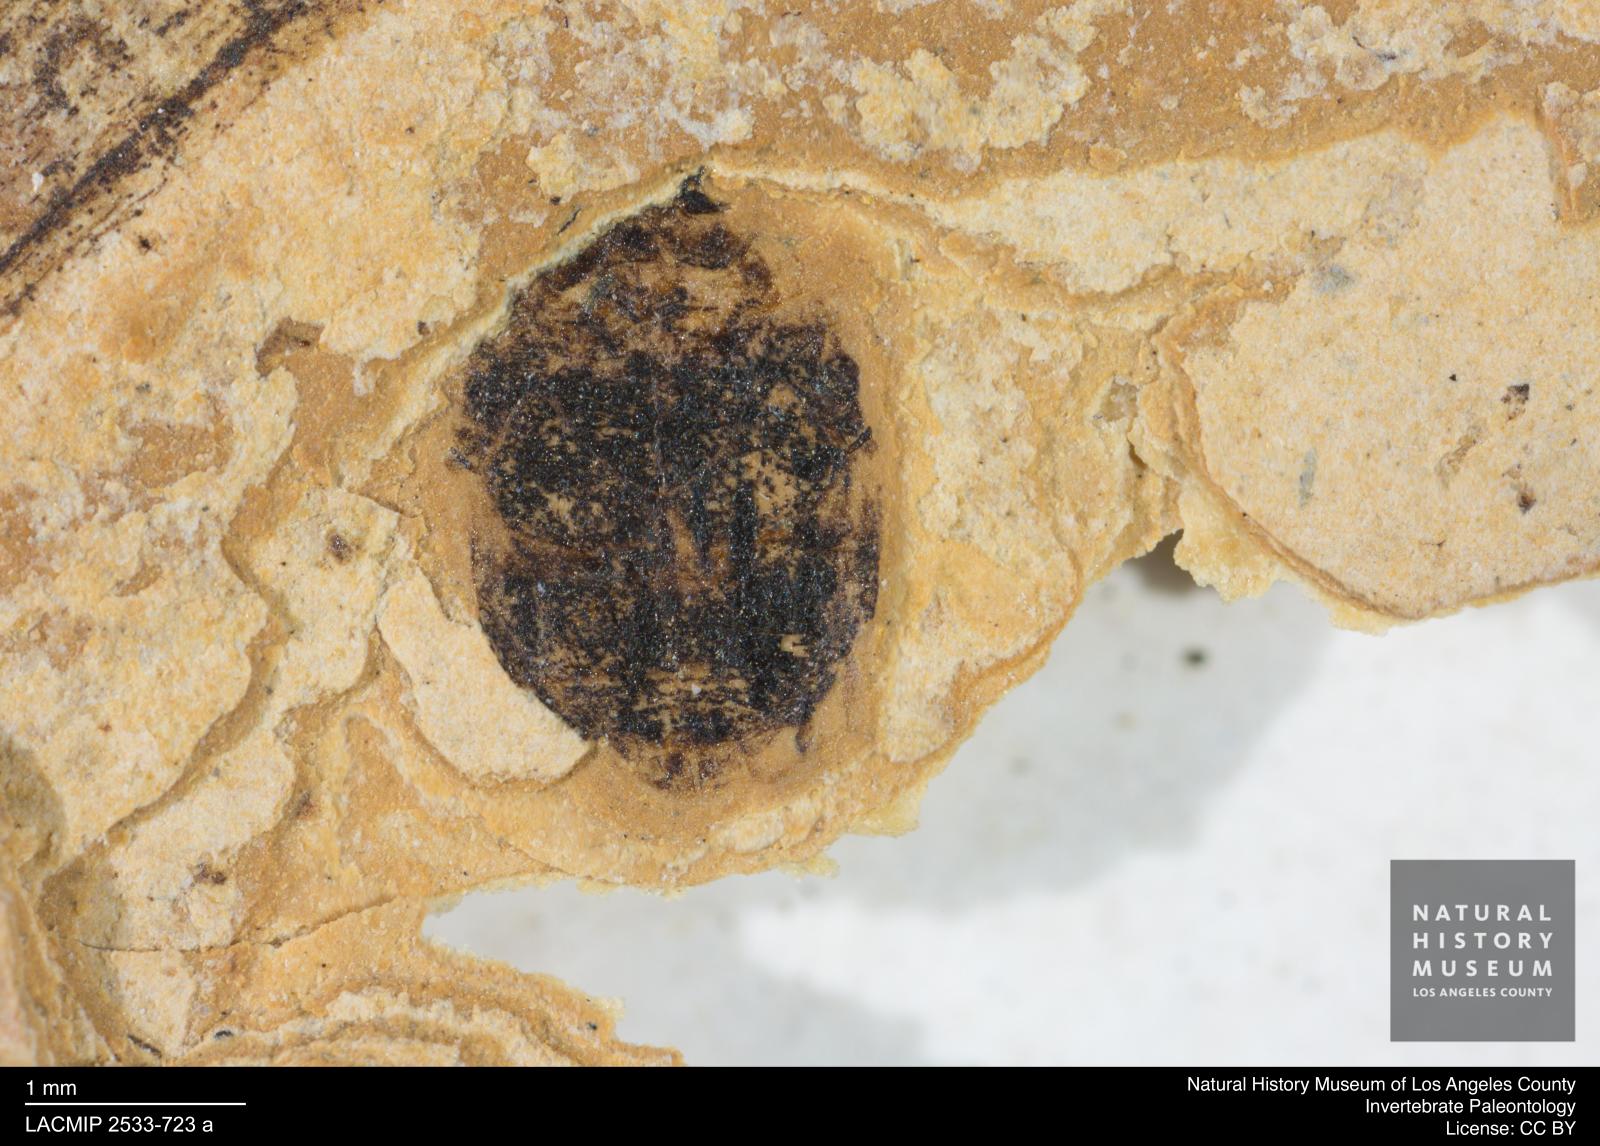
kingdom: Animalia
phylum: Arthropoda
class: Insecta
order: Coleoptera
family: Dytiscidae
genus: Oreodytes
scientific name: Oreodytes cryptolineatus
